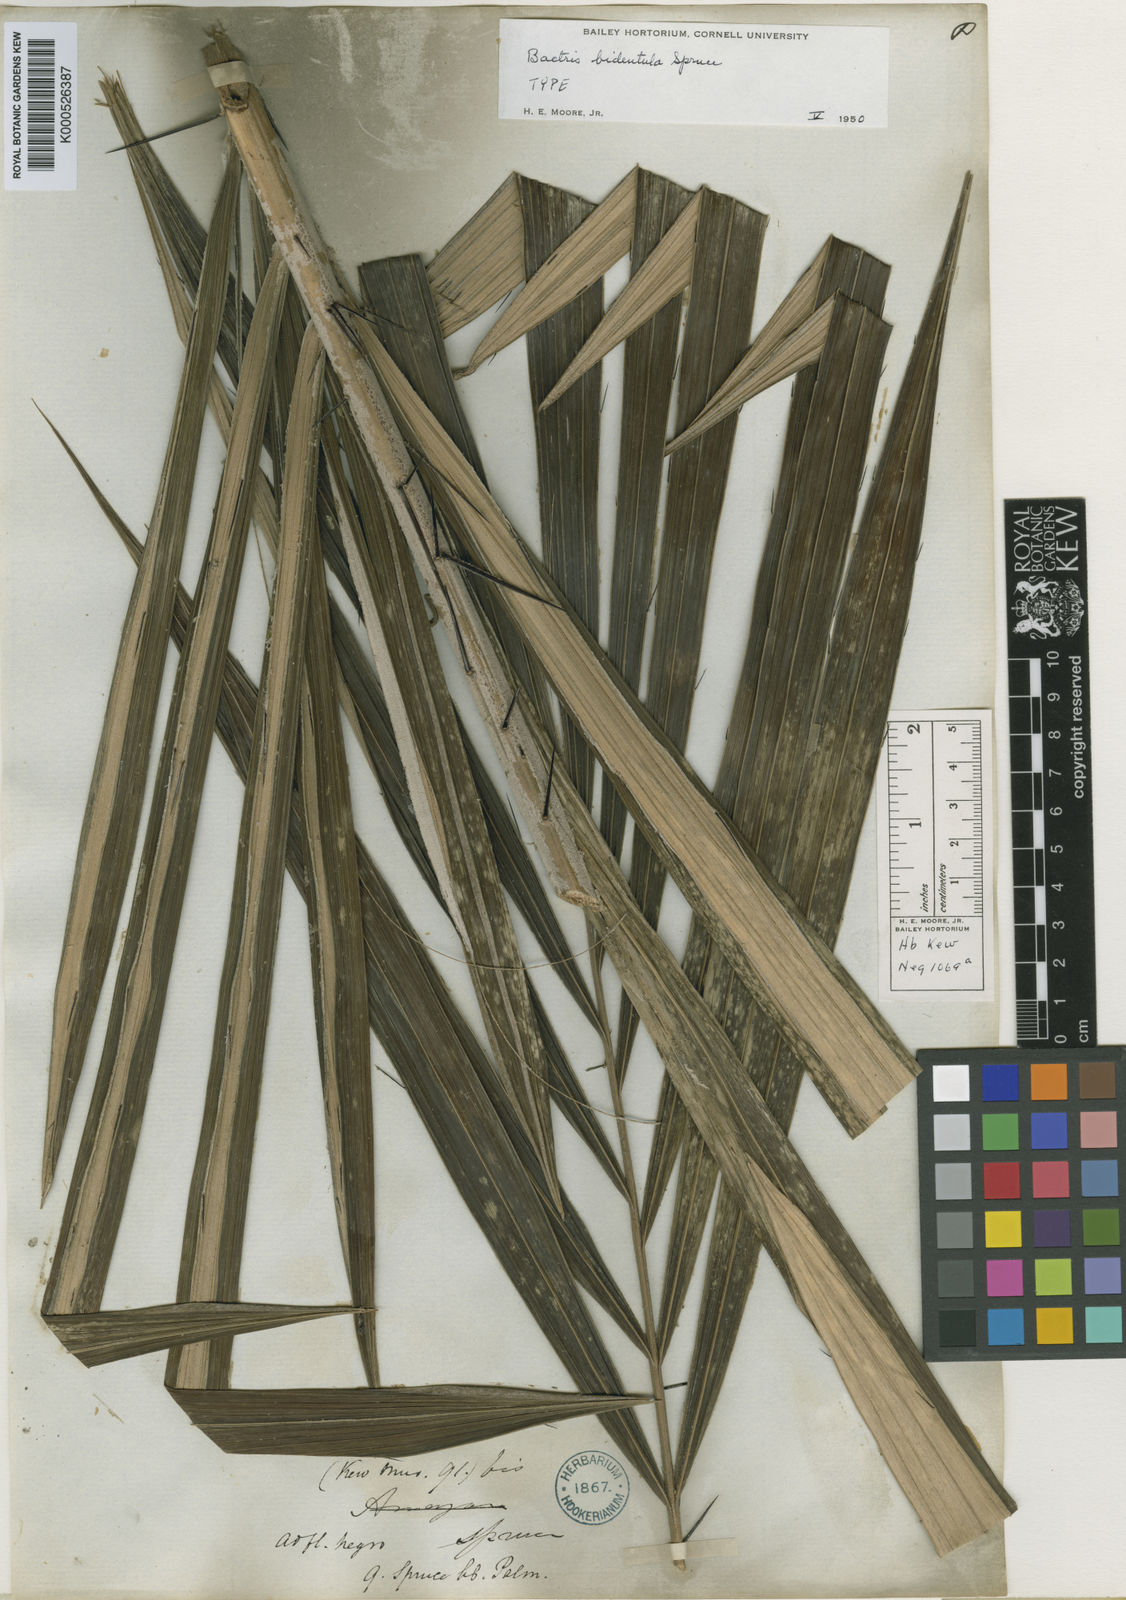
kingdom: Plantae
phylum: Tracheophyta
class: Liliopsida
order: Arecales
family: Arecaceae
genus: Bactris
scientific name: Bactris bidentula
